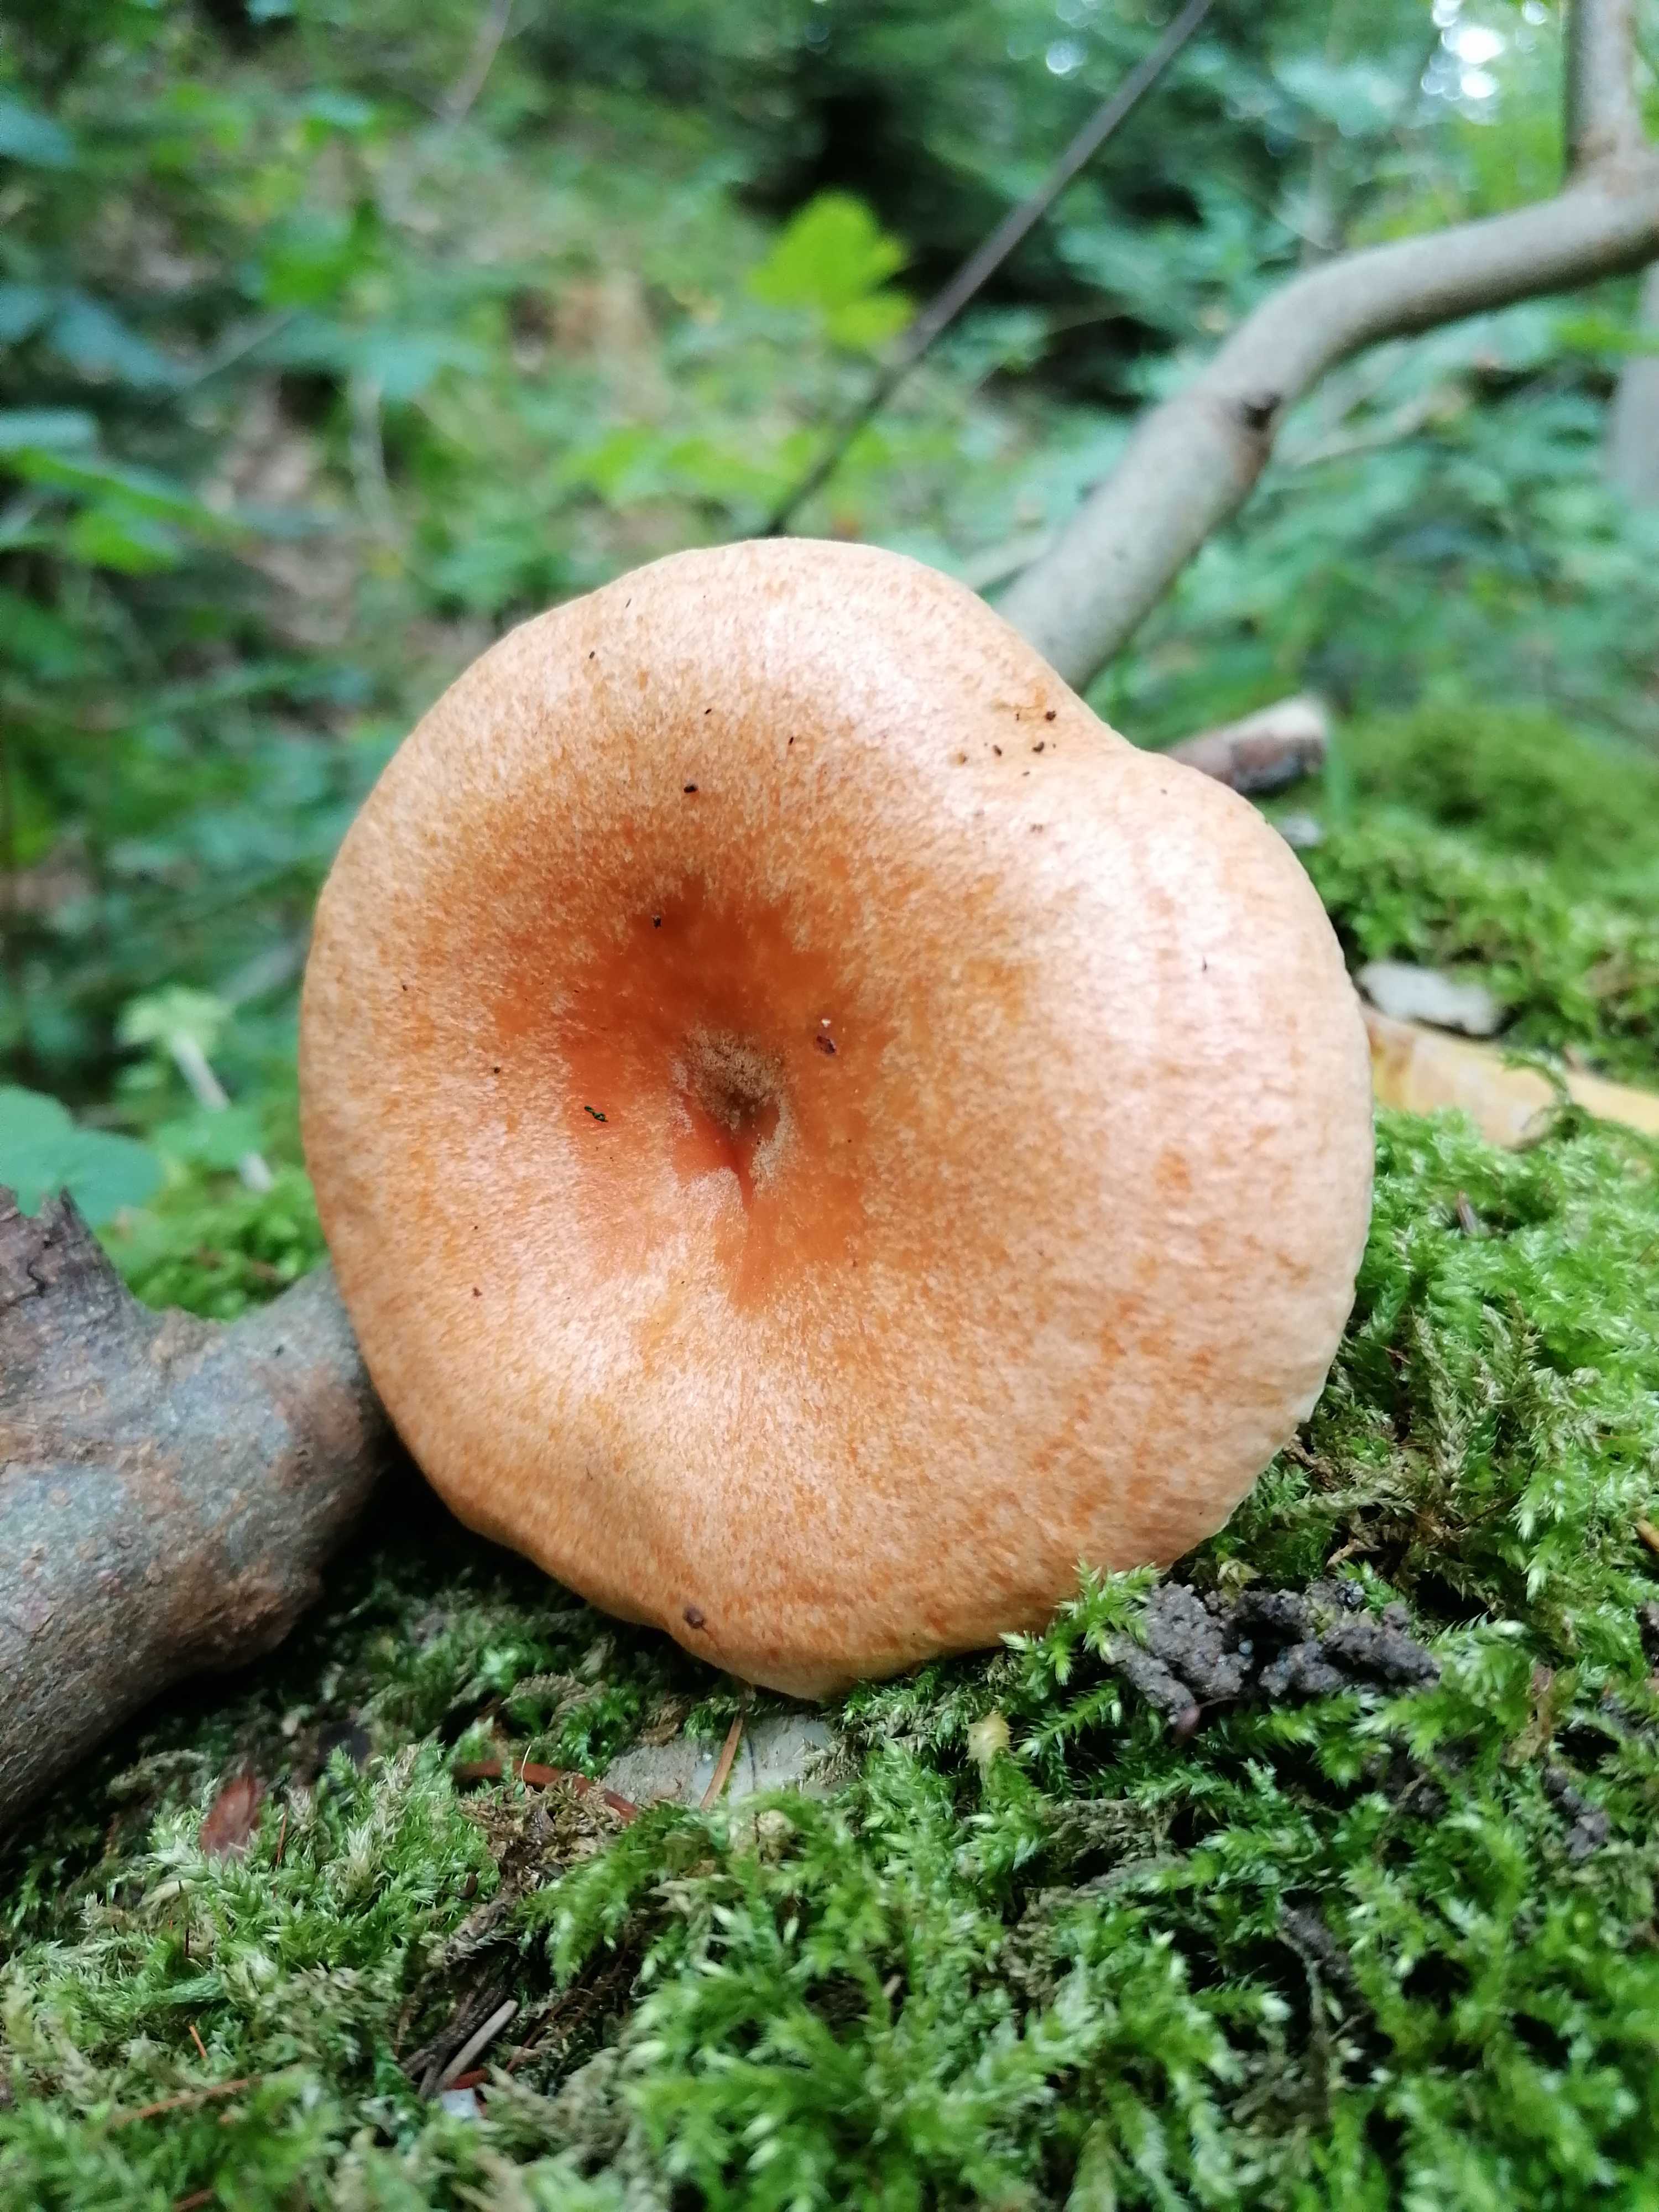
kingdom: Fungi
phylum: Basidiomycota
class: Agaricomycetes
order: Russulales
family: Russulaceae
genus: Lactarius
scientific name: Lactarius deterrimus
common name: gran-mælkehat
